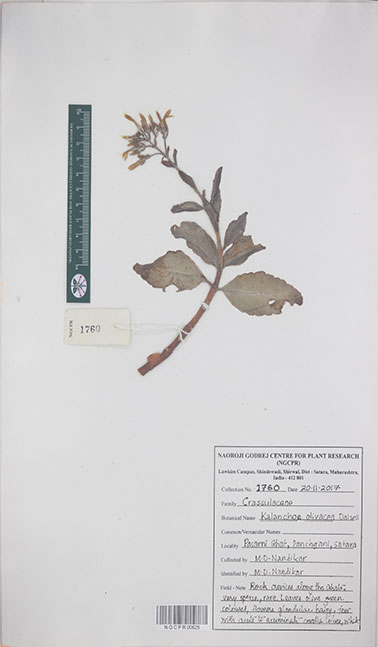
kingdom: Plantae
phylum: Tracheophyta
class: Magnoliopsida
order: Saxifragales
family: Crassulaceae
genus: Kalanchoe
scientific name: Kalanchoe olivacea
